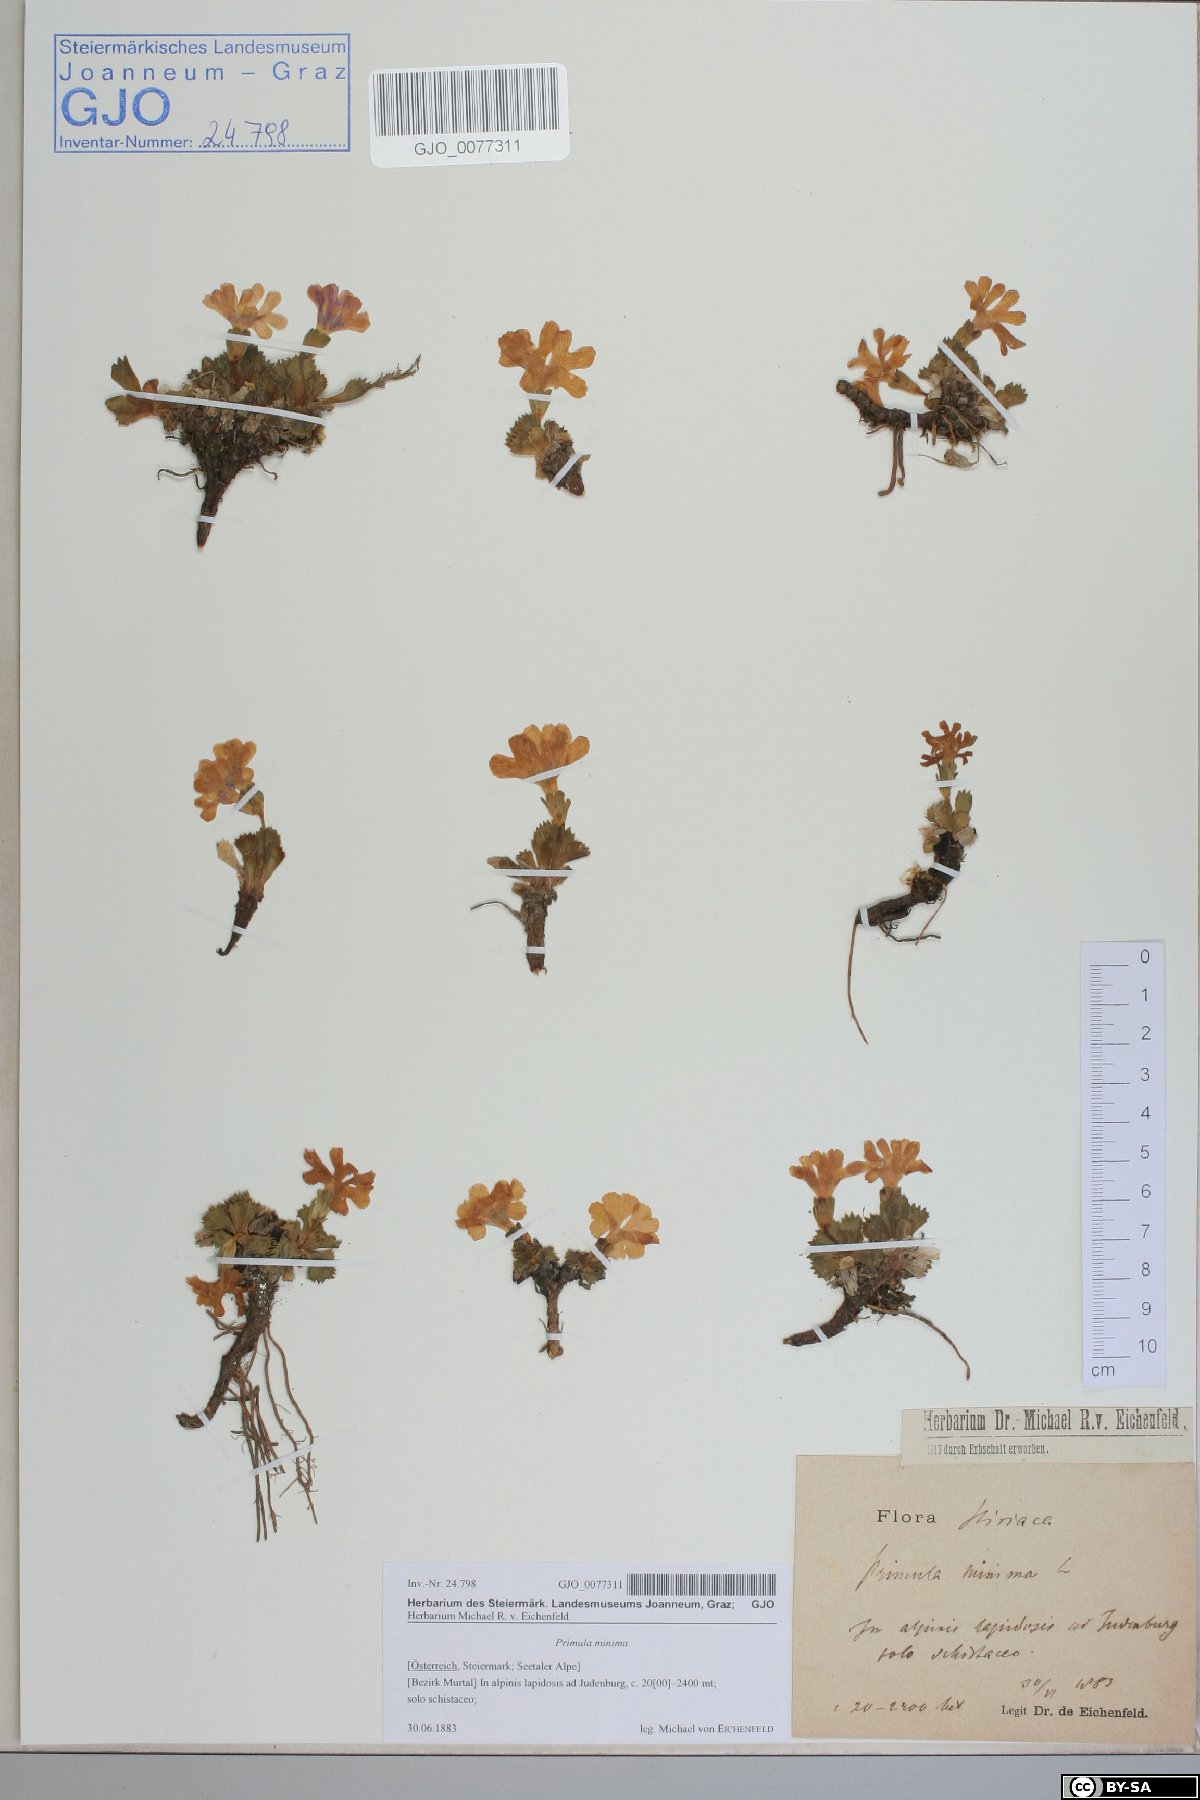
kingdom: Plantae
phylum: Tracheophyta
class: Magnoliopsida
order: Ericales
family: Primulaceae
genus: Primula
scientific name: Primula minima
